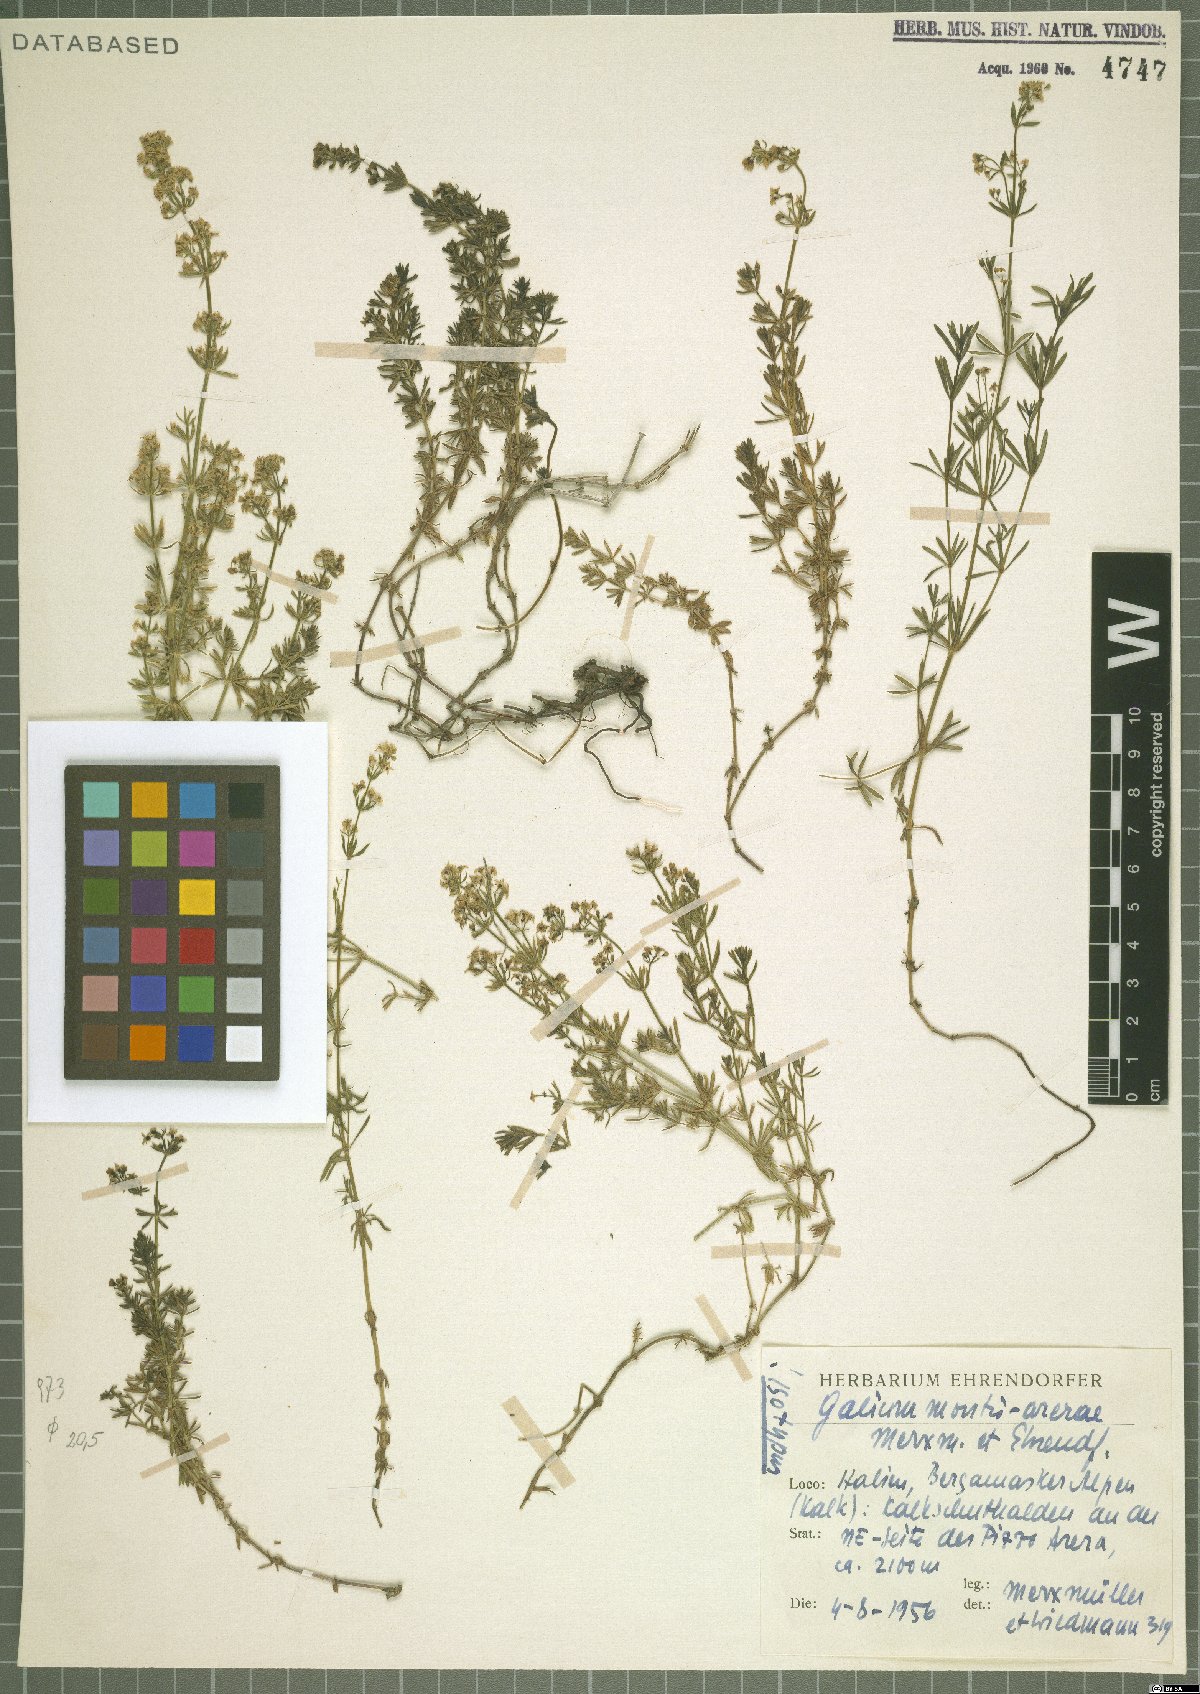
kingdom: Plantae
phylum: Tracheophyta
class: Magnoliopsida
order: Gentianales
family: Rubiaceae
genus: Galium
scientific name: Galium montis-arerae
